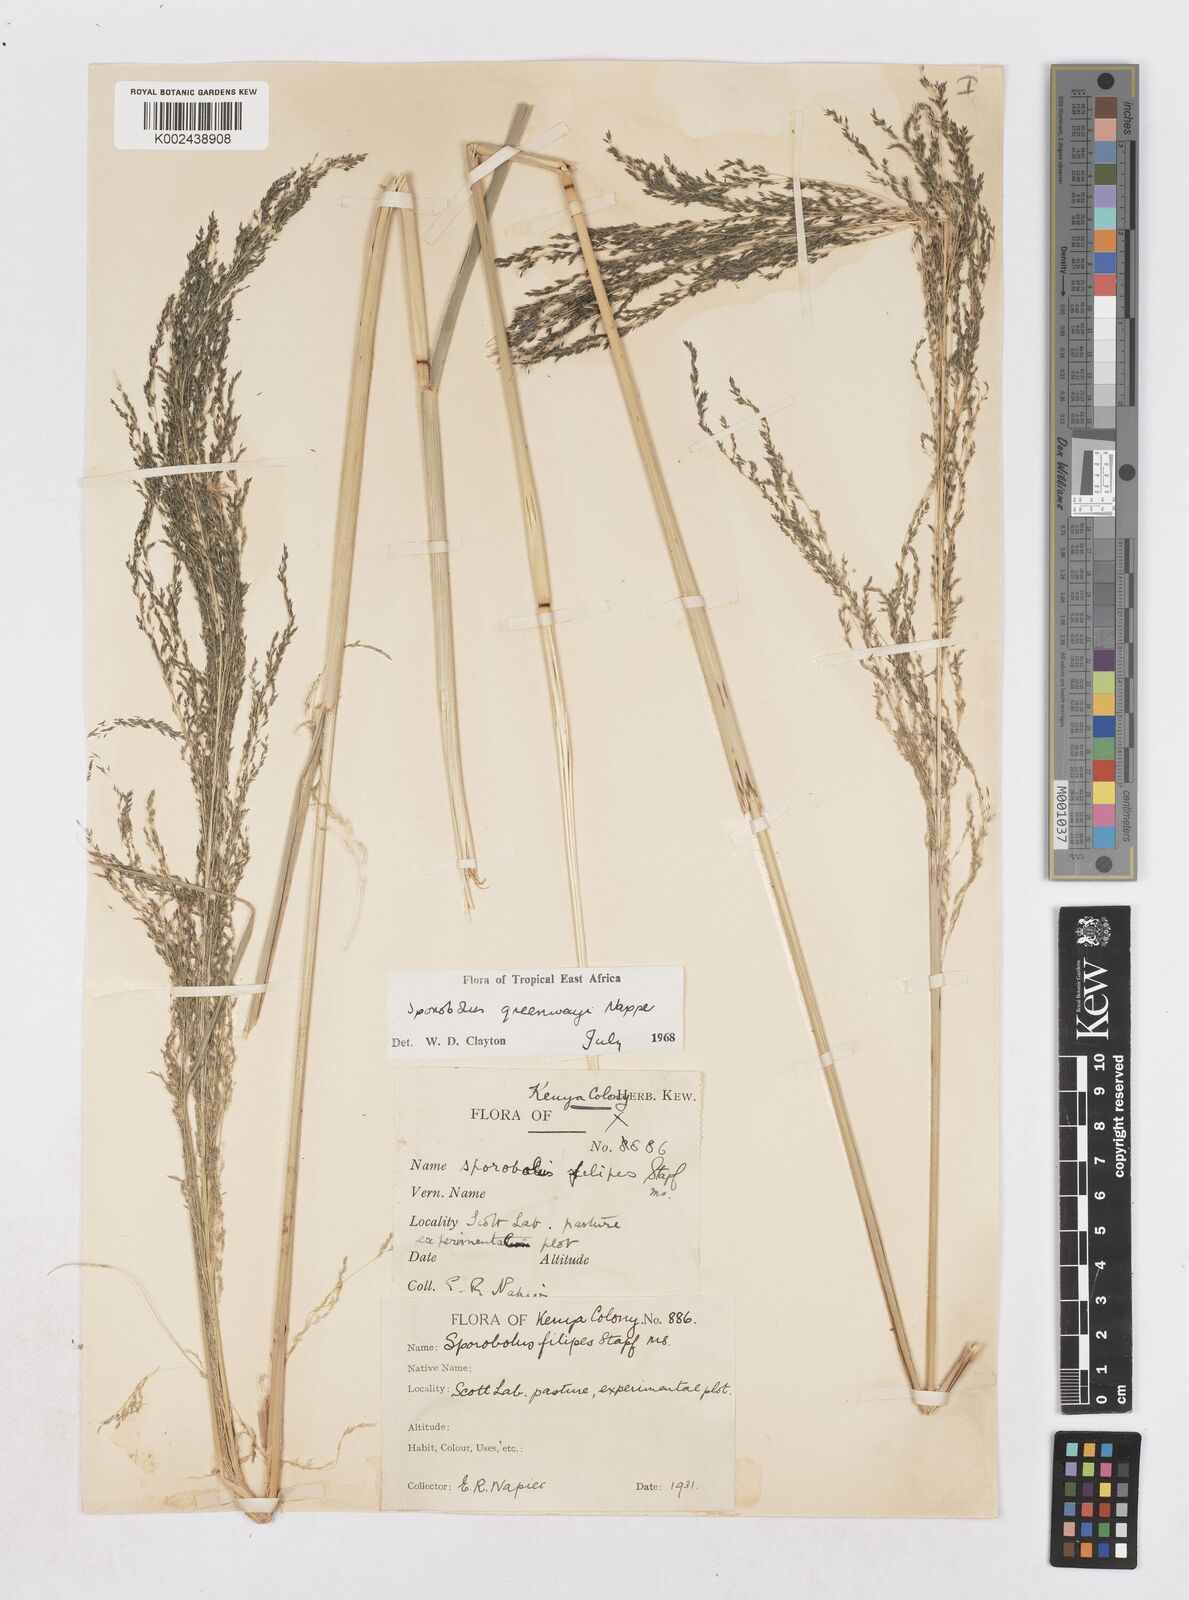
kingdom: Plantae
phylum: Tracheophyta
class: Liliopsida
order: Poales
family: Poaceae
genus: Sporobolus
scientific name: Sporobolus macranthelus
